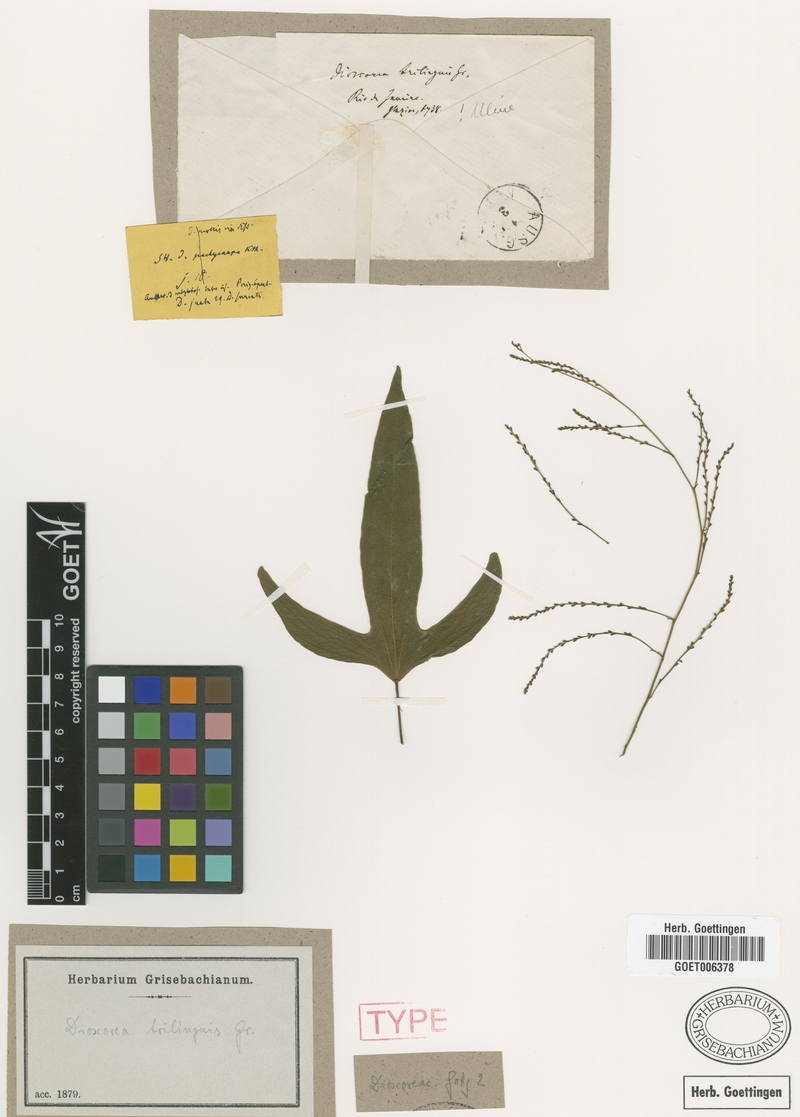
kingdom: Plantae
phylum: Tracheophyta
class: Liliopsida
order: Dioscoreales
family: Dioscoreaceae
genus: Dioscorea
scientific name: Dioscorea trilinguis
